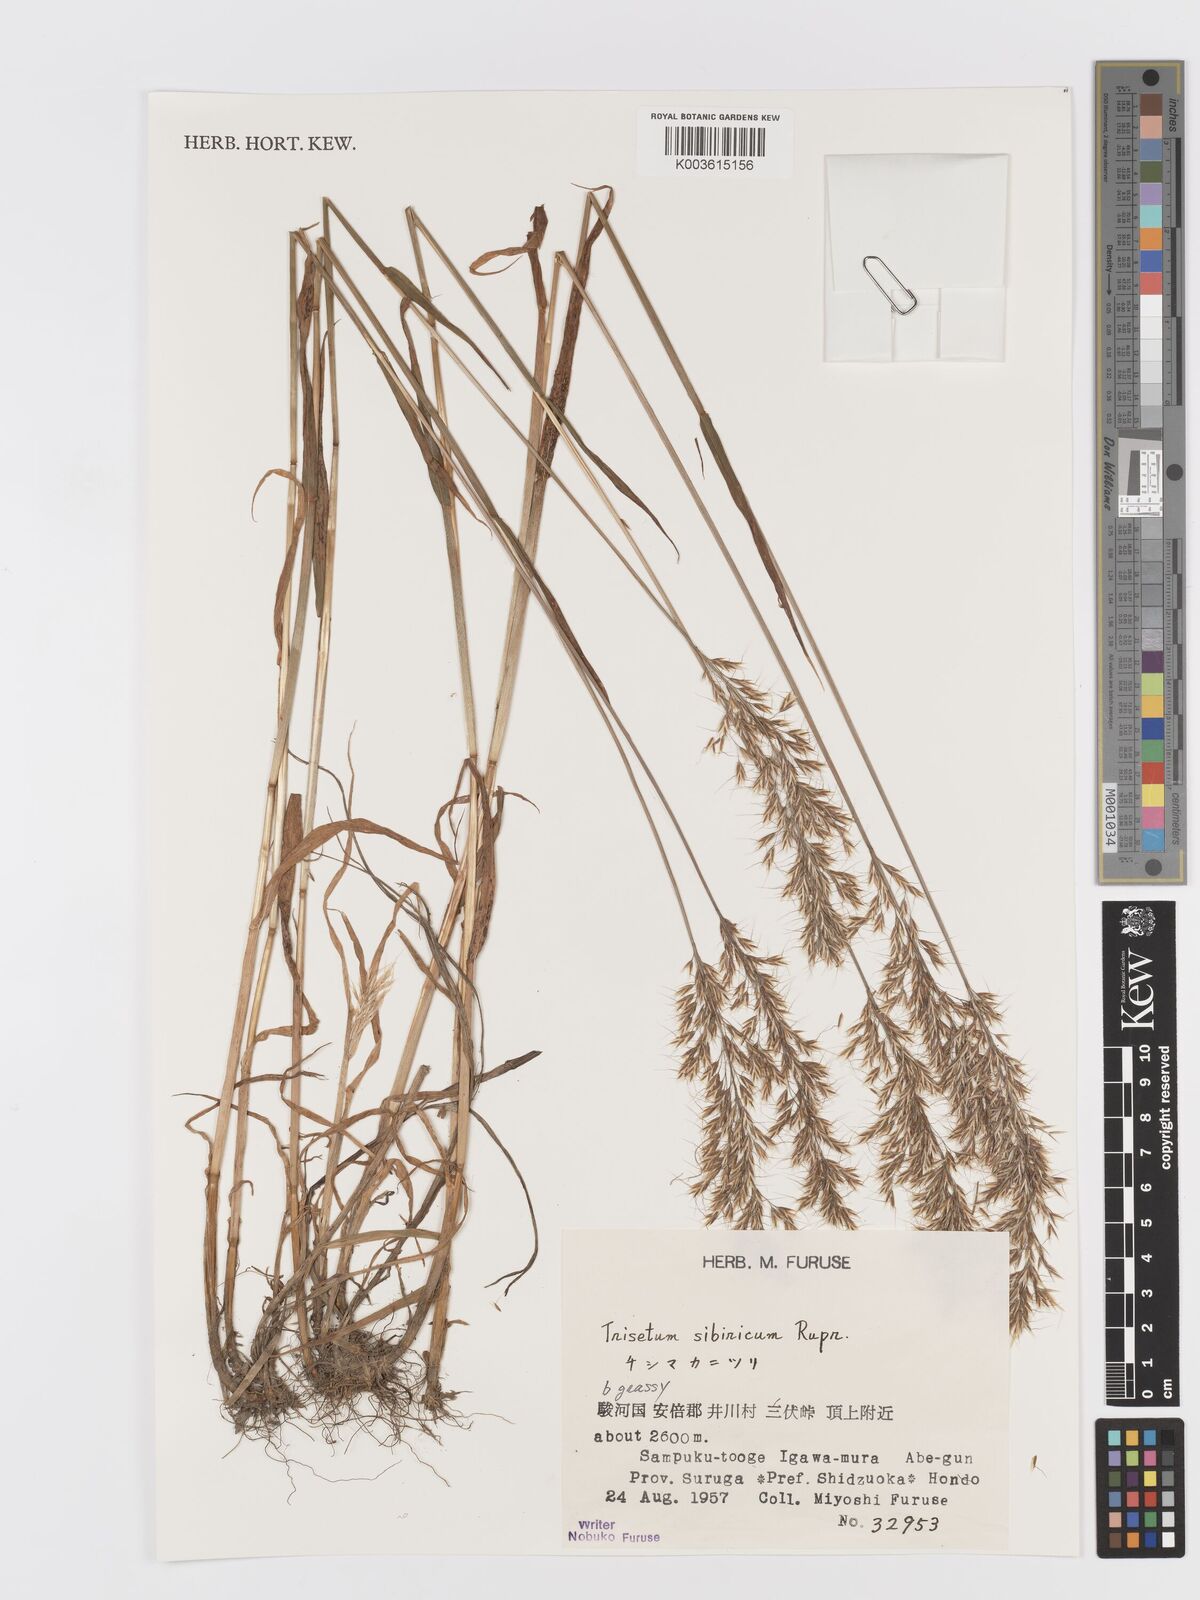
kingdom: Plantae
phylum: Tracheophyta
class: Liliopsida
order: Poales
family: Poaceae
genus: Sibirotrisetum
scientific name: Sibirotrisetum sibiricum
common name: Siberian false oat
